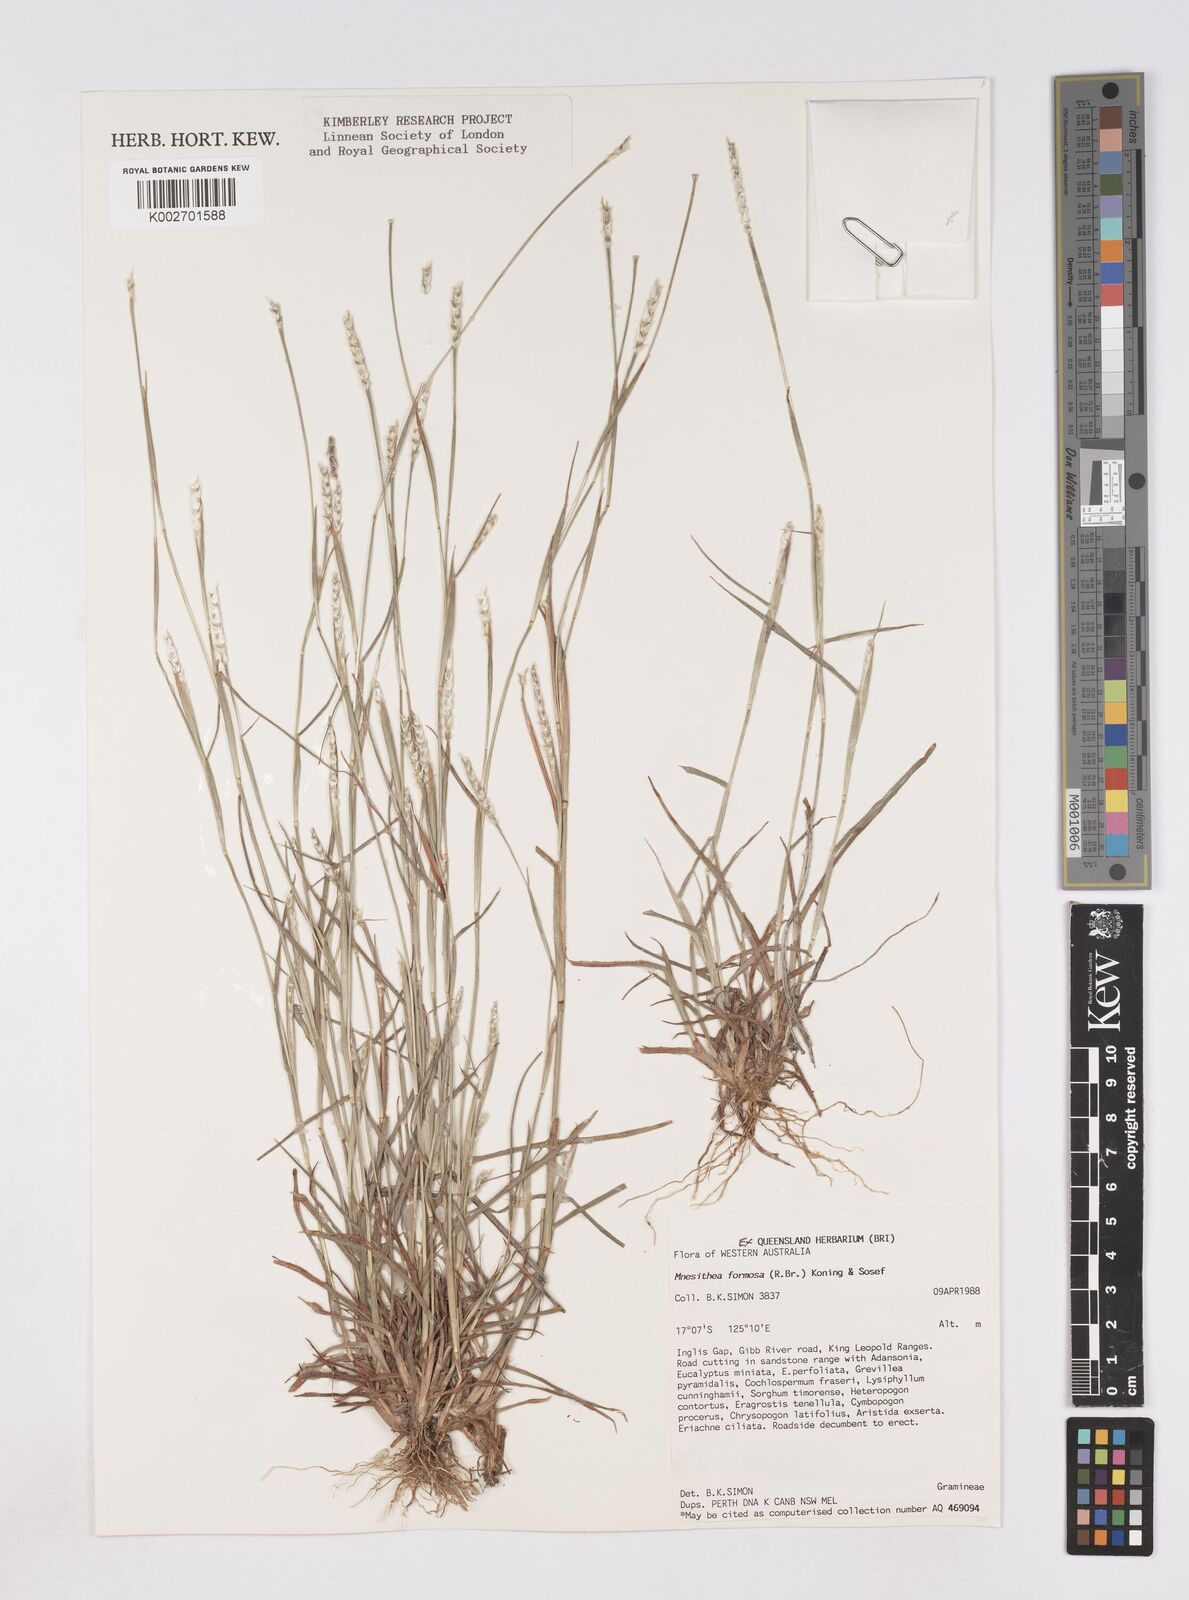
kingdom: Plantae
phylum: Tracheophyta
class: Liliopsida
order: Poales
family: Poaceae
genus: Heteropholis
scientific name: Heteropholis
